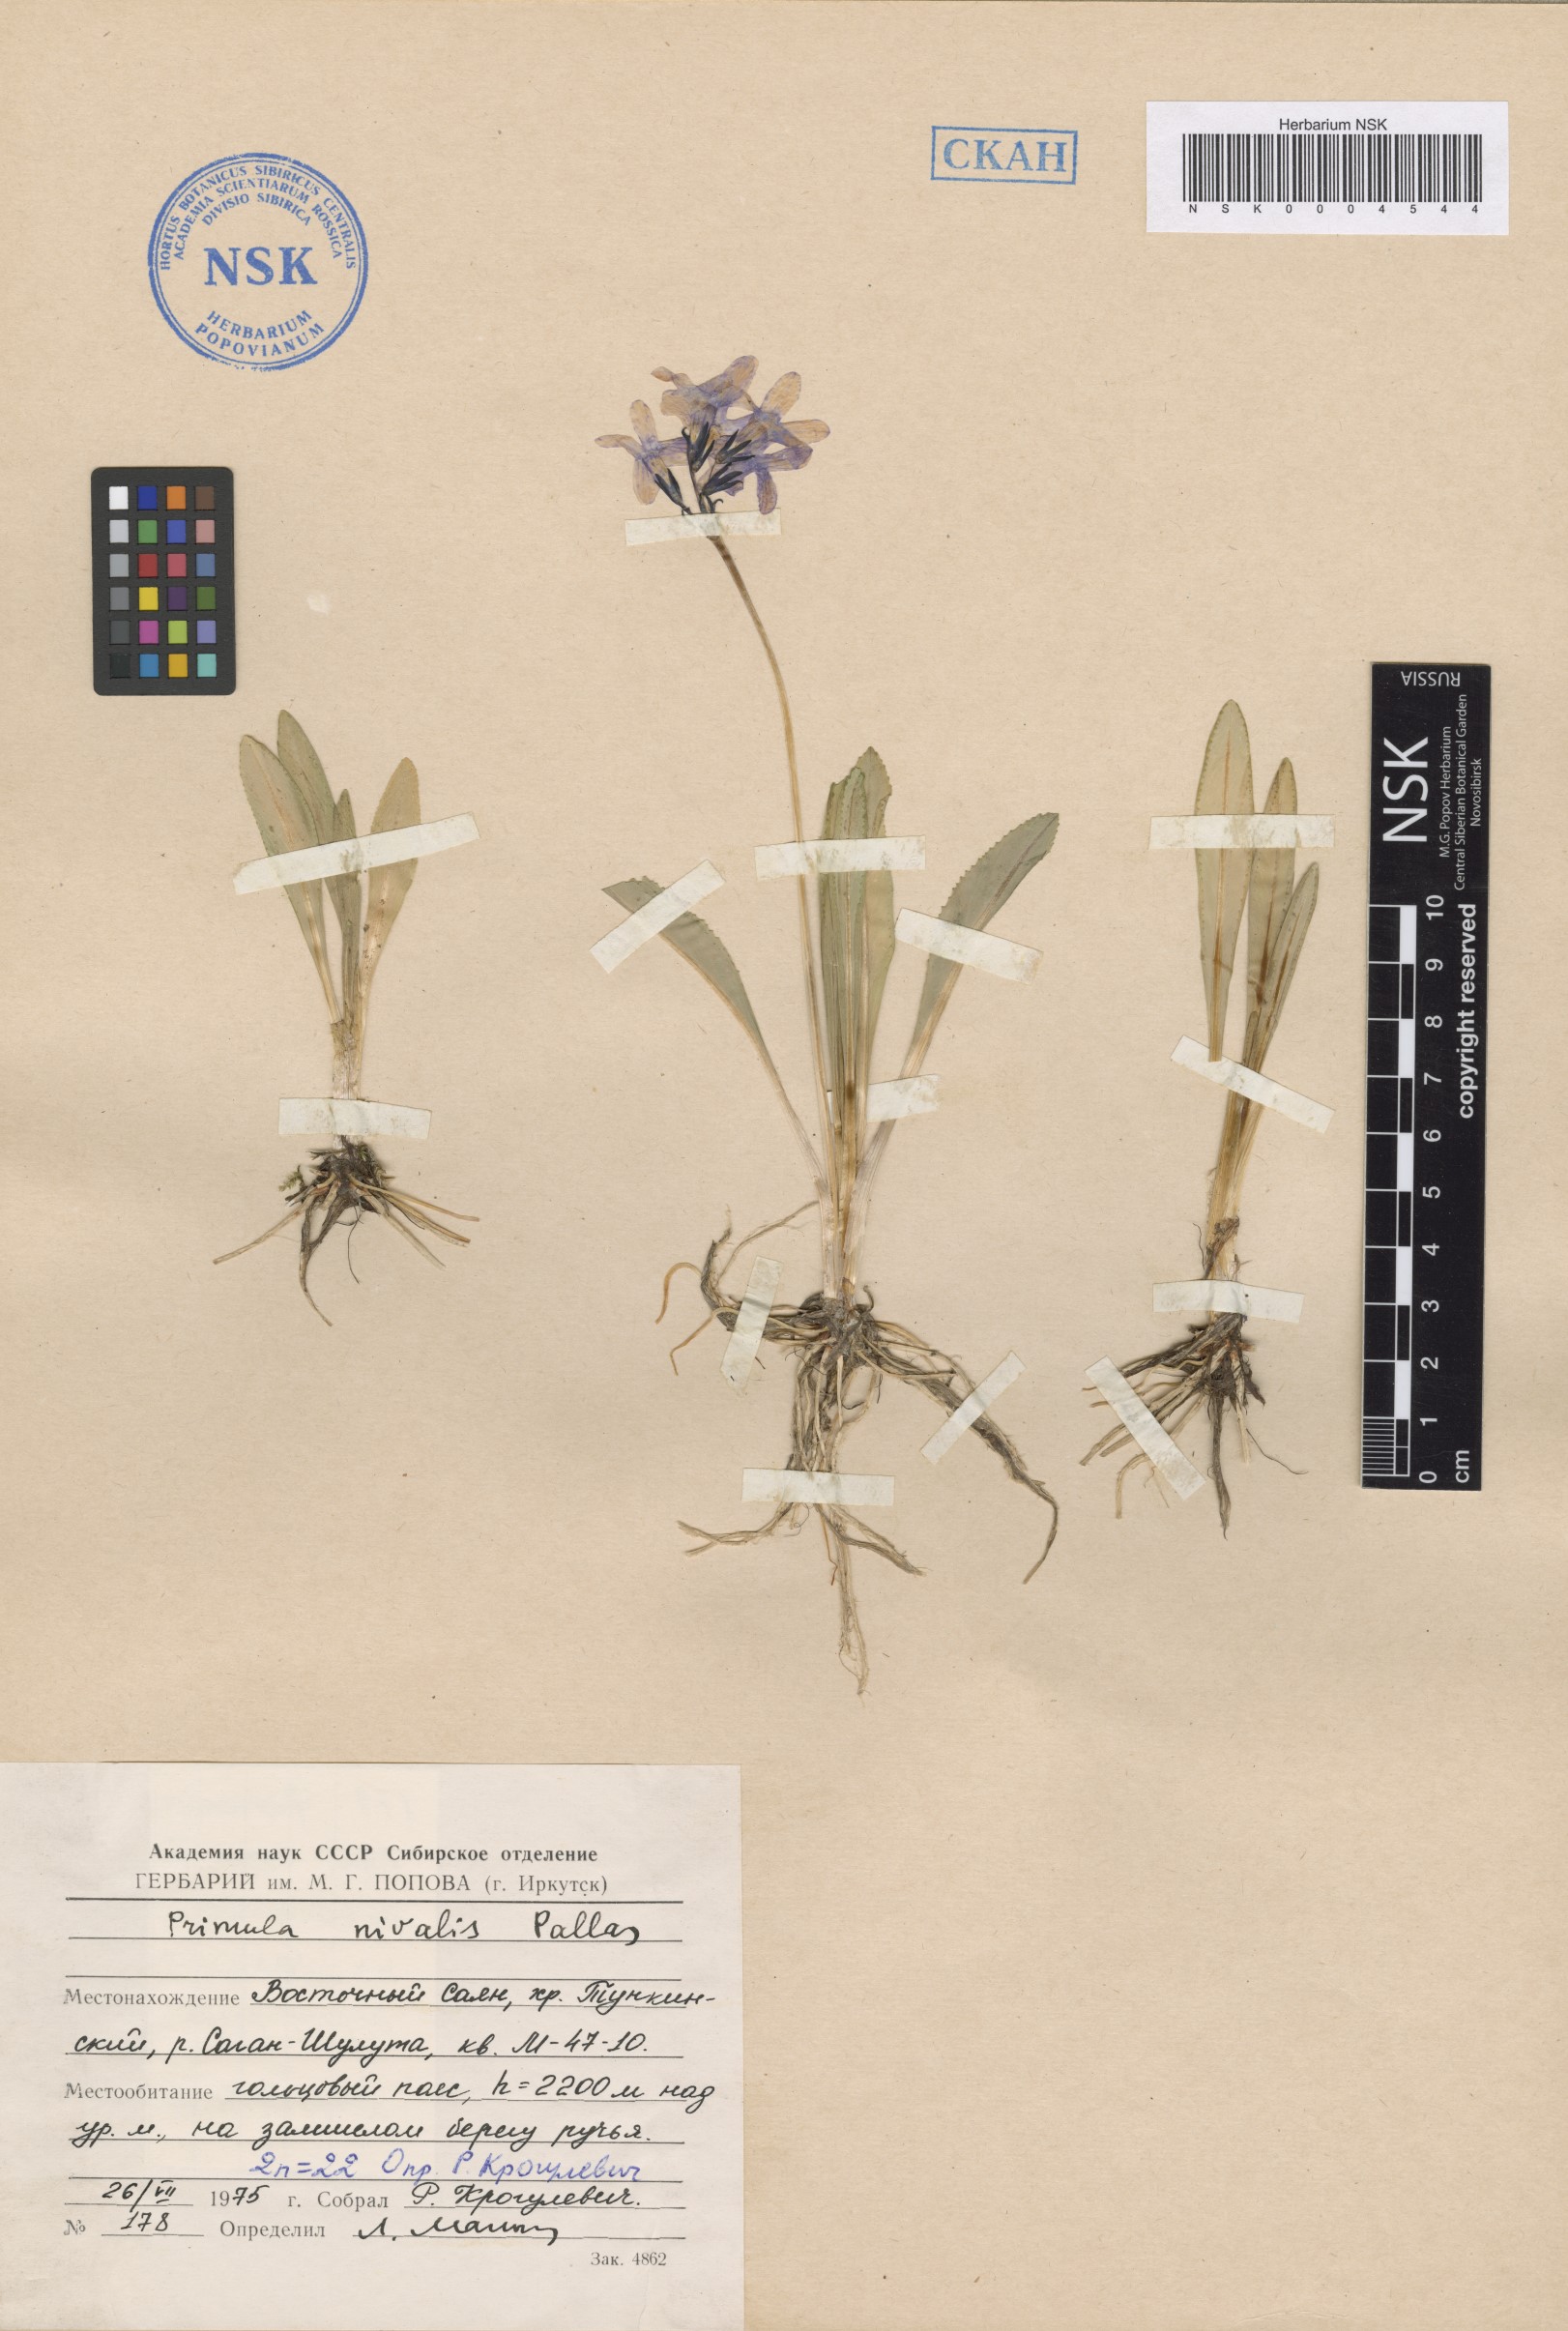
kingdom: Plantae
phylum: Tracheophyta
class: Magnoliopsida
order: Ericales
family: Primulaceae
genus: Primula
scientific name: Primula nivalis
